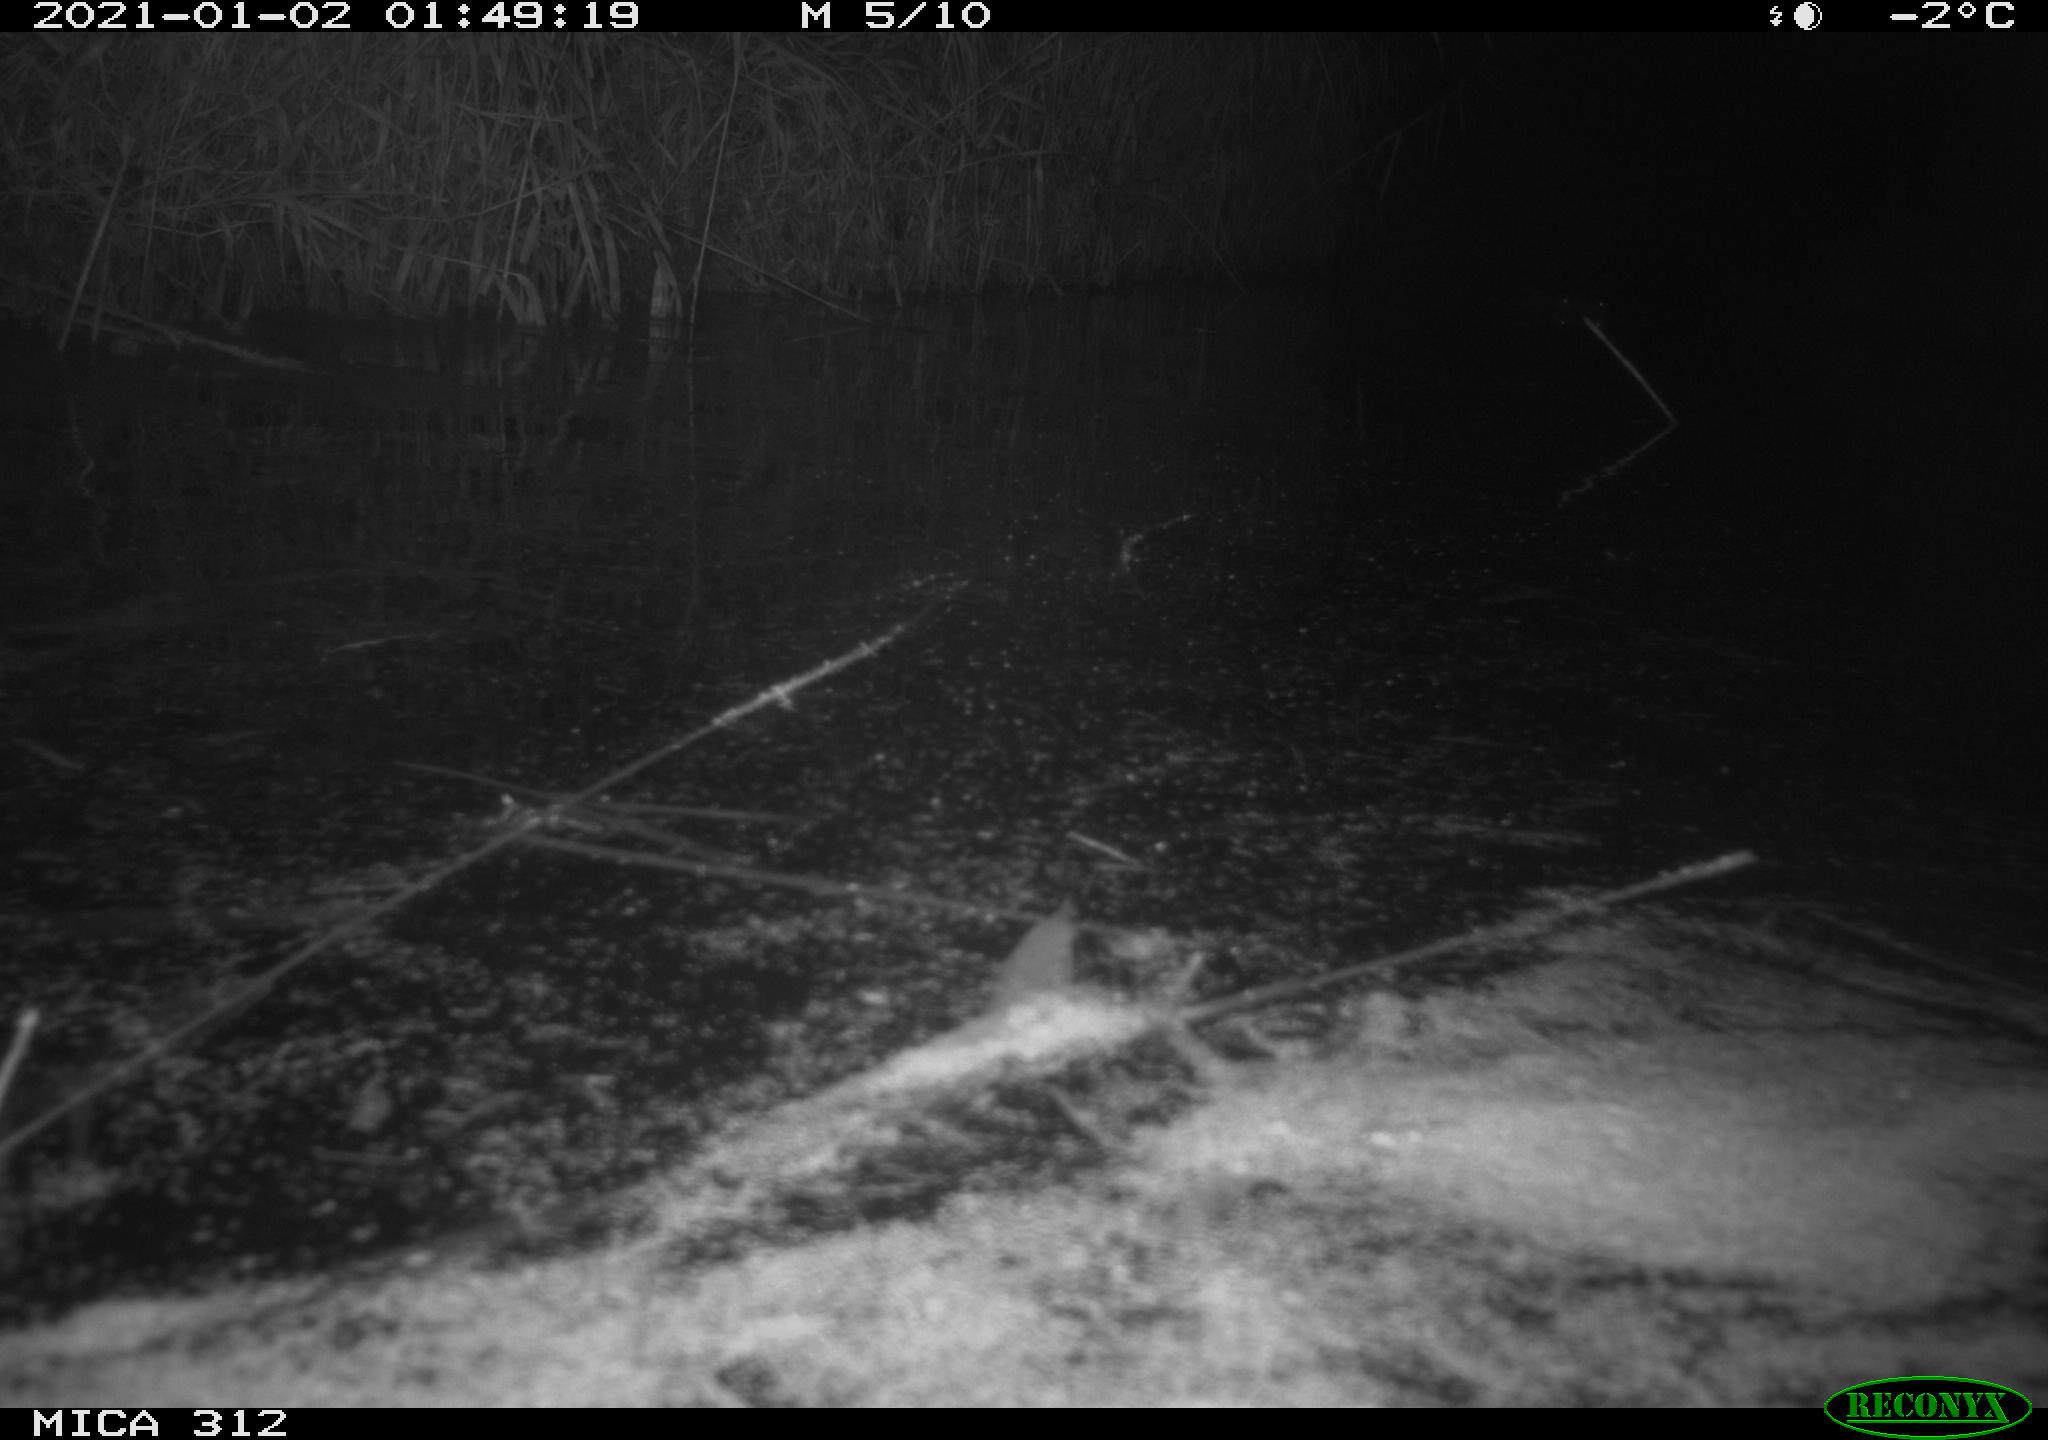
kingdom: Animalia
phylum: Chordata
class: Mammalia
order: Rodentia
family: Muridae
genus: Rattus
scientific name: Rattus norvegicus
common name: Brown rat
